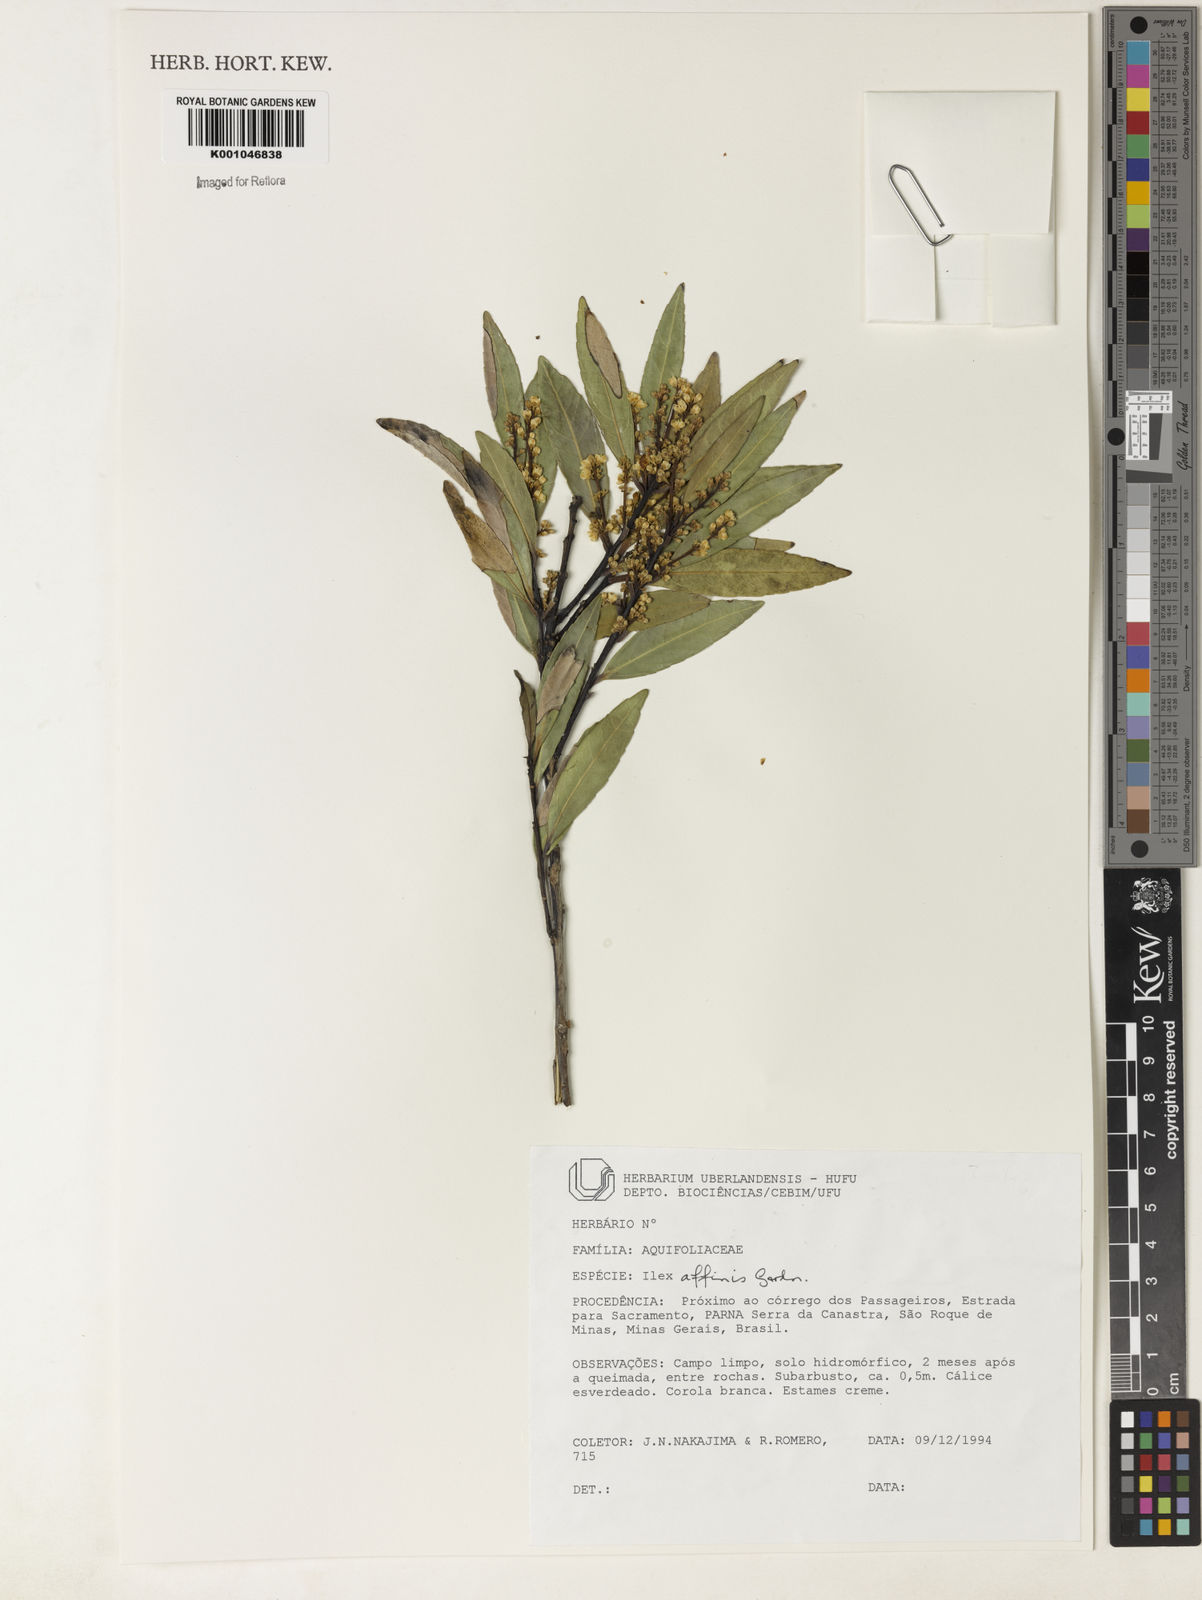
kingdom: Plantae
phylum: Tracheophyta
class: Magnoliopsida
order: Aquifoliales
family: Aquifoliaceae
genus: Ilex
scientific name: Ilex affinis
